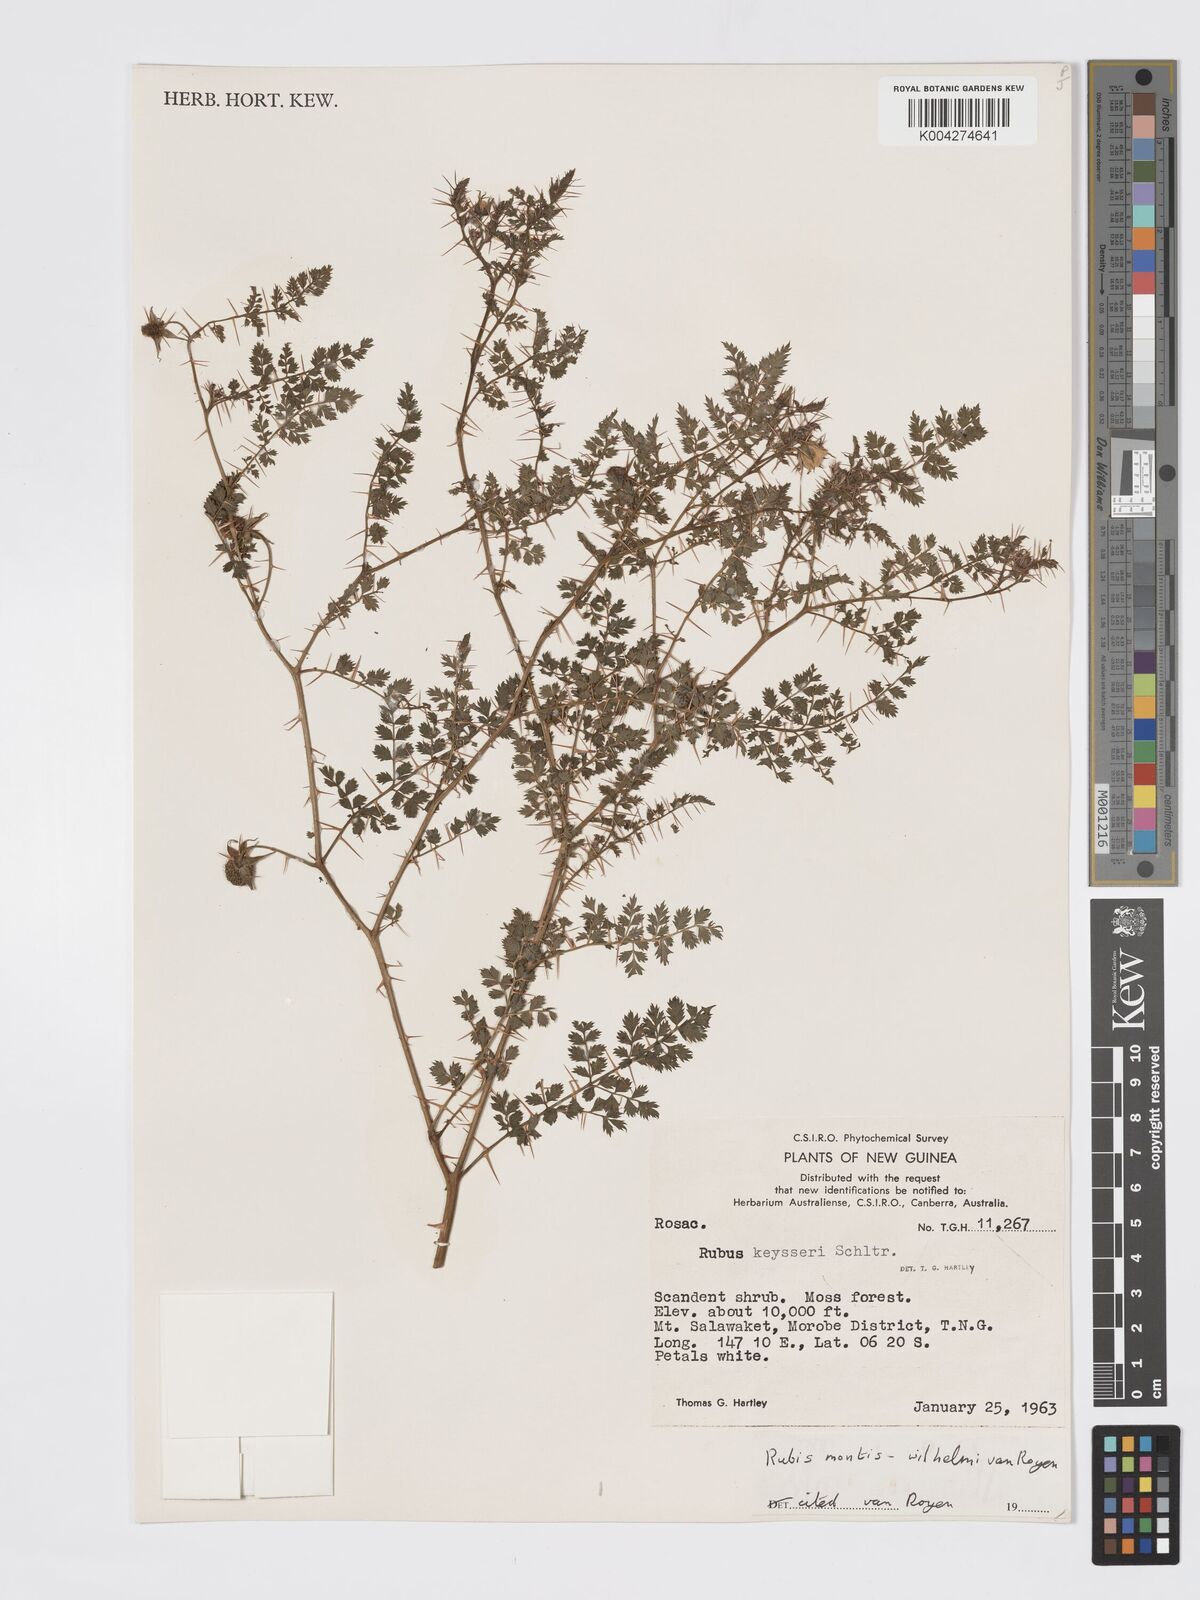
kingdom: Plantae
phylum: Tracheophyta
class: Magnoliopsida
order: Rosales
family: Rosaceae
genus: Rubus
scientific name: Rubus montis-wilhelmii
